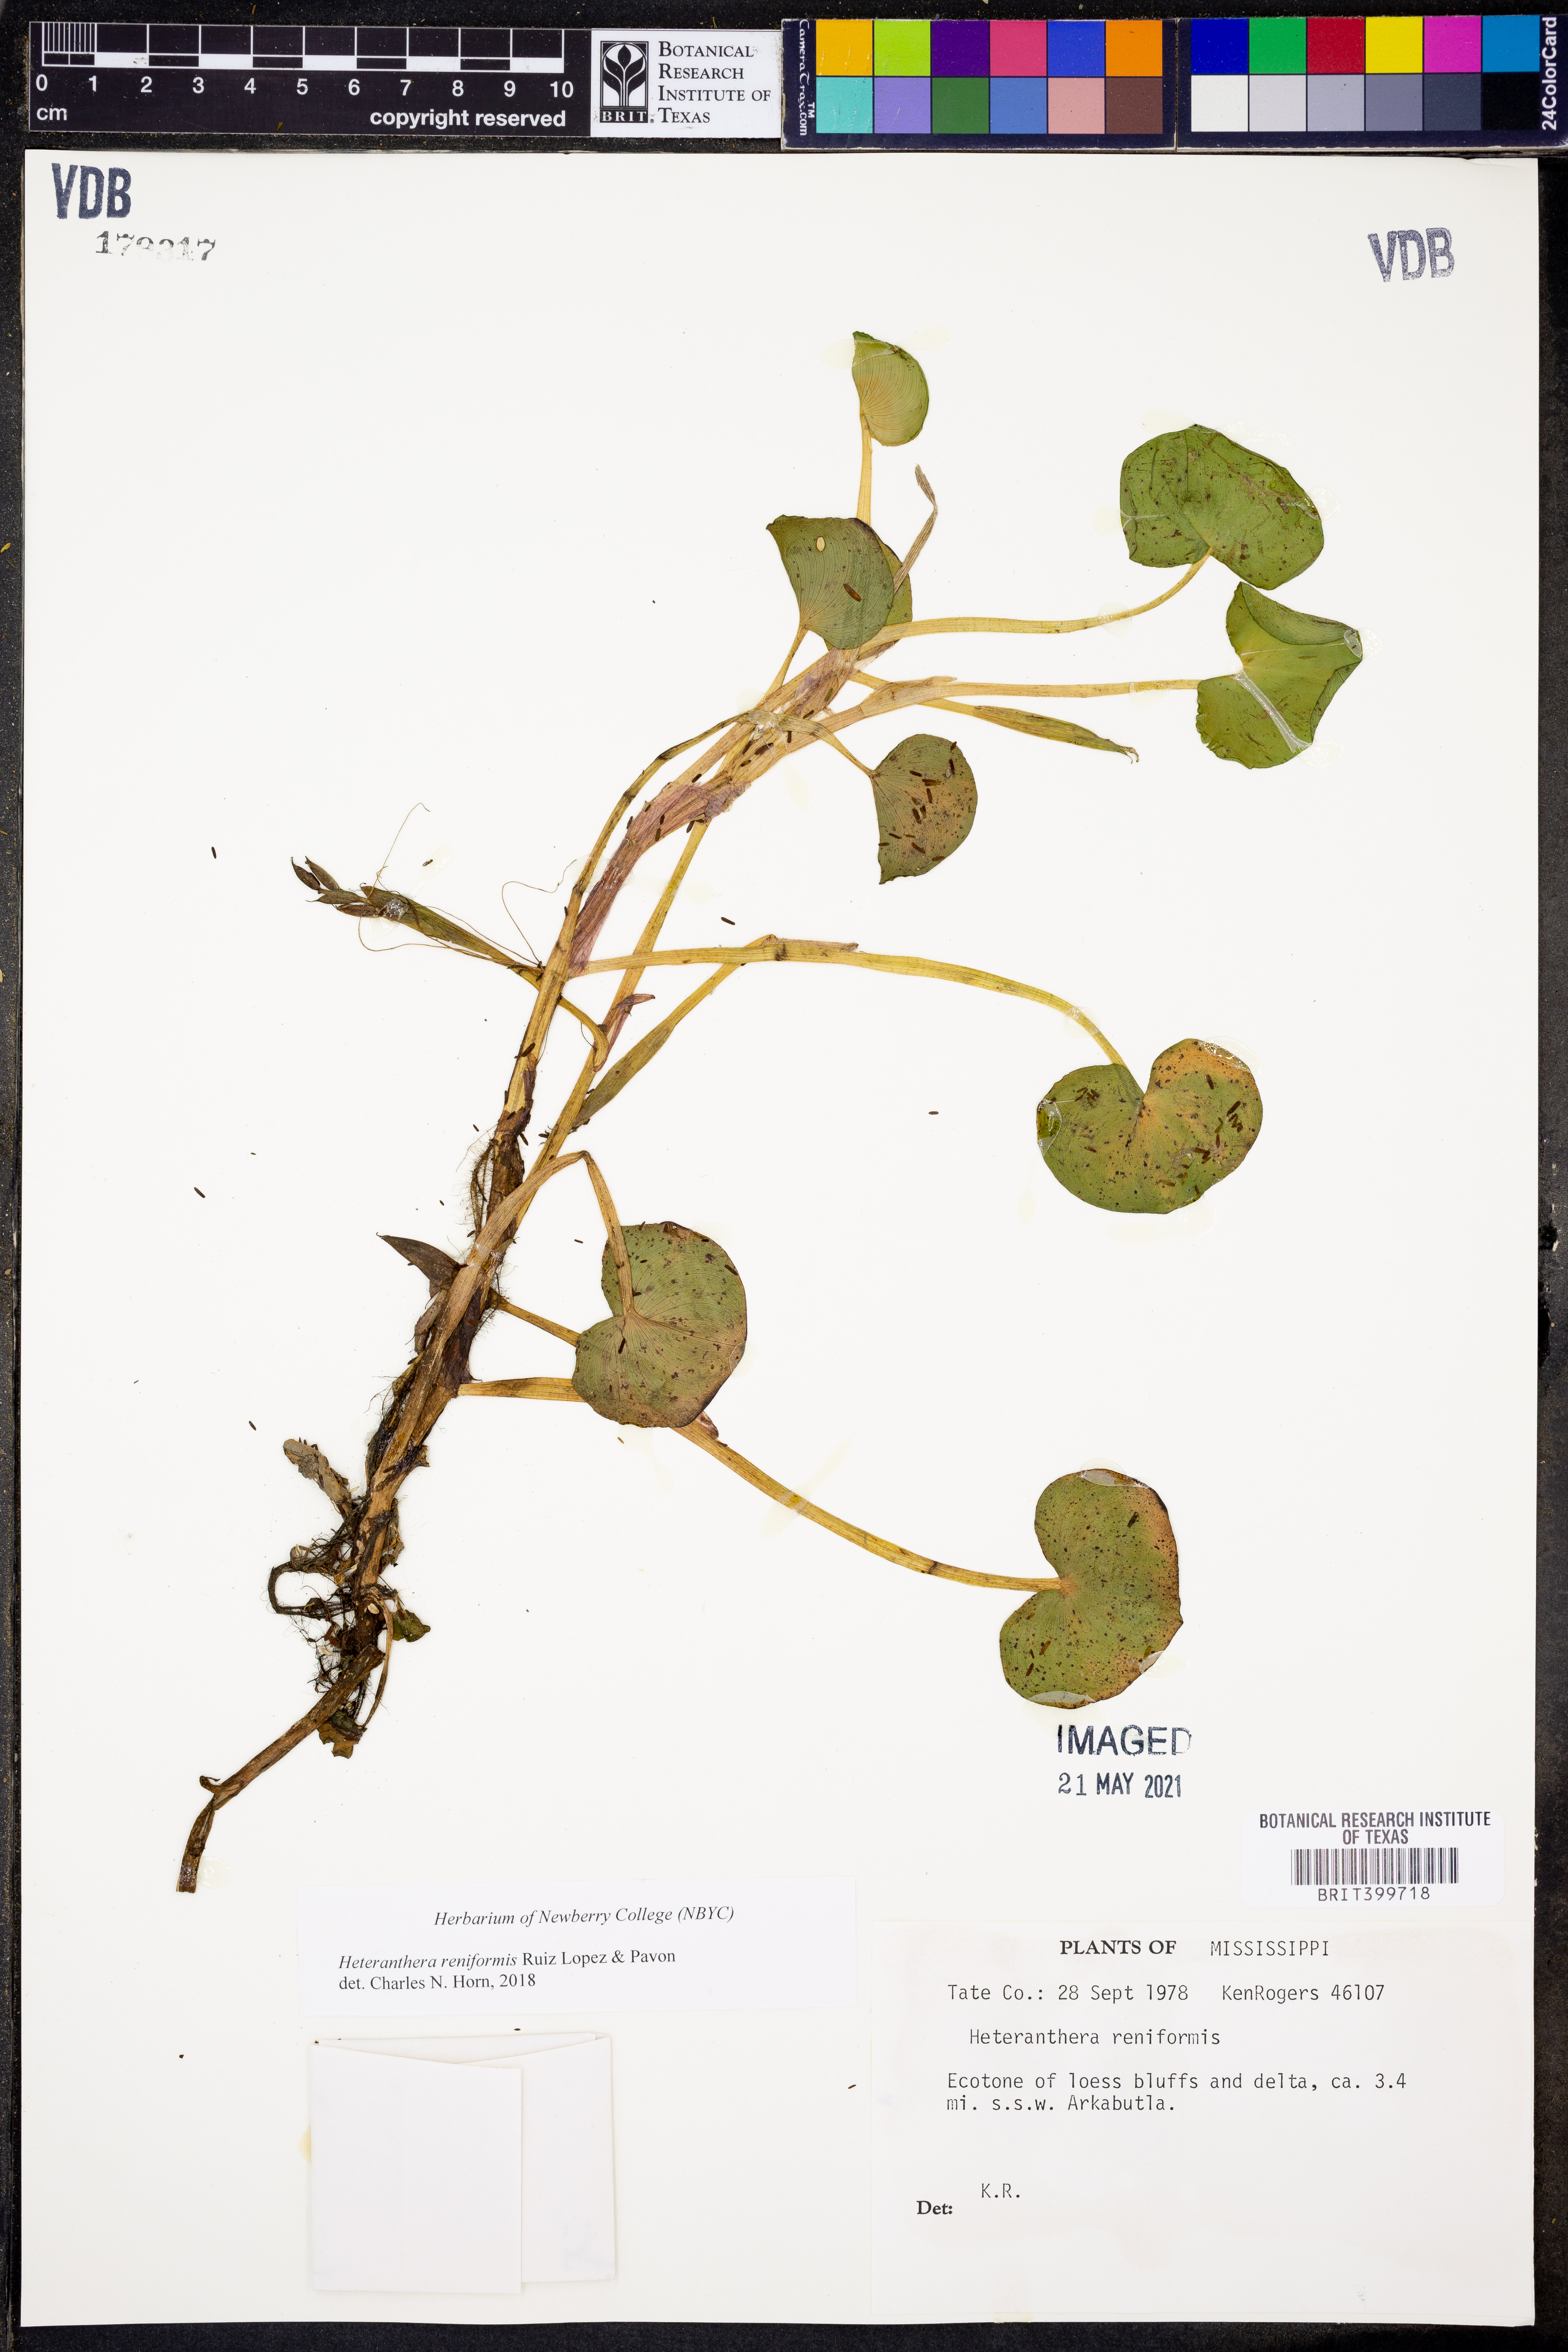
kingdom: Plantae
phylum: Tracheophyta
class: Liliopsida
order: Commelinales
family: Pontederiaceae
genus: Heteranthera
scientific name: Heteranthera reniformis
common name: Kidneyleaf mudplantain
